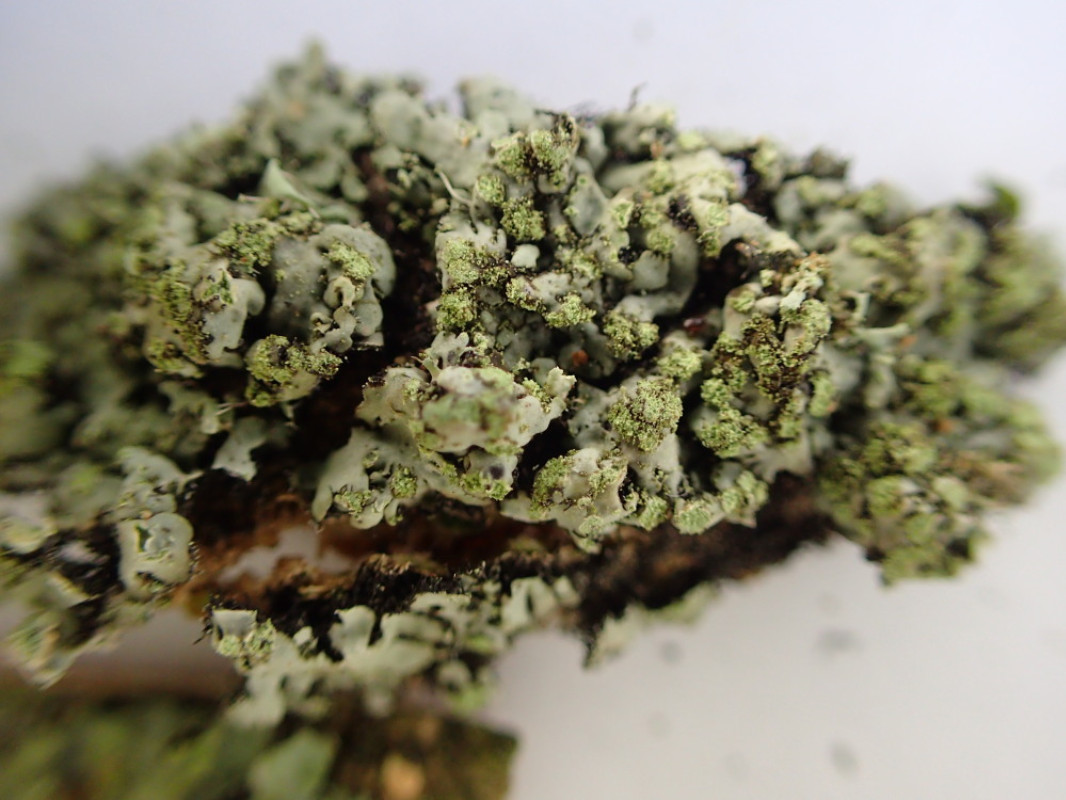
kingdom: Fungi
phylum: Ascomycota
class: Lecanoromycetes
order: Caliciales
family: Physciaceae
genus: Phaeophyscia
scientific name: Phaeophyscia orbicularis
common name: grågrøn rosetlav
